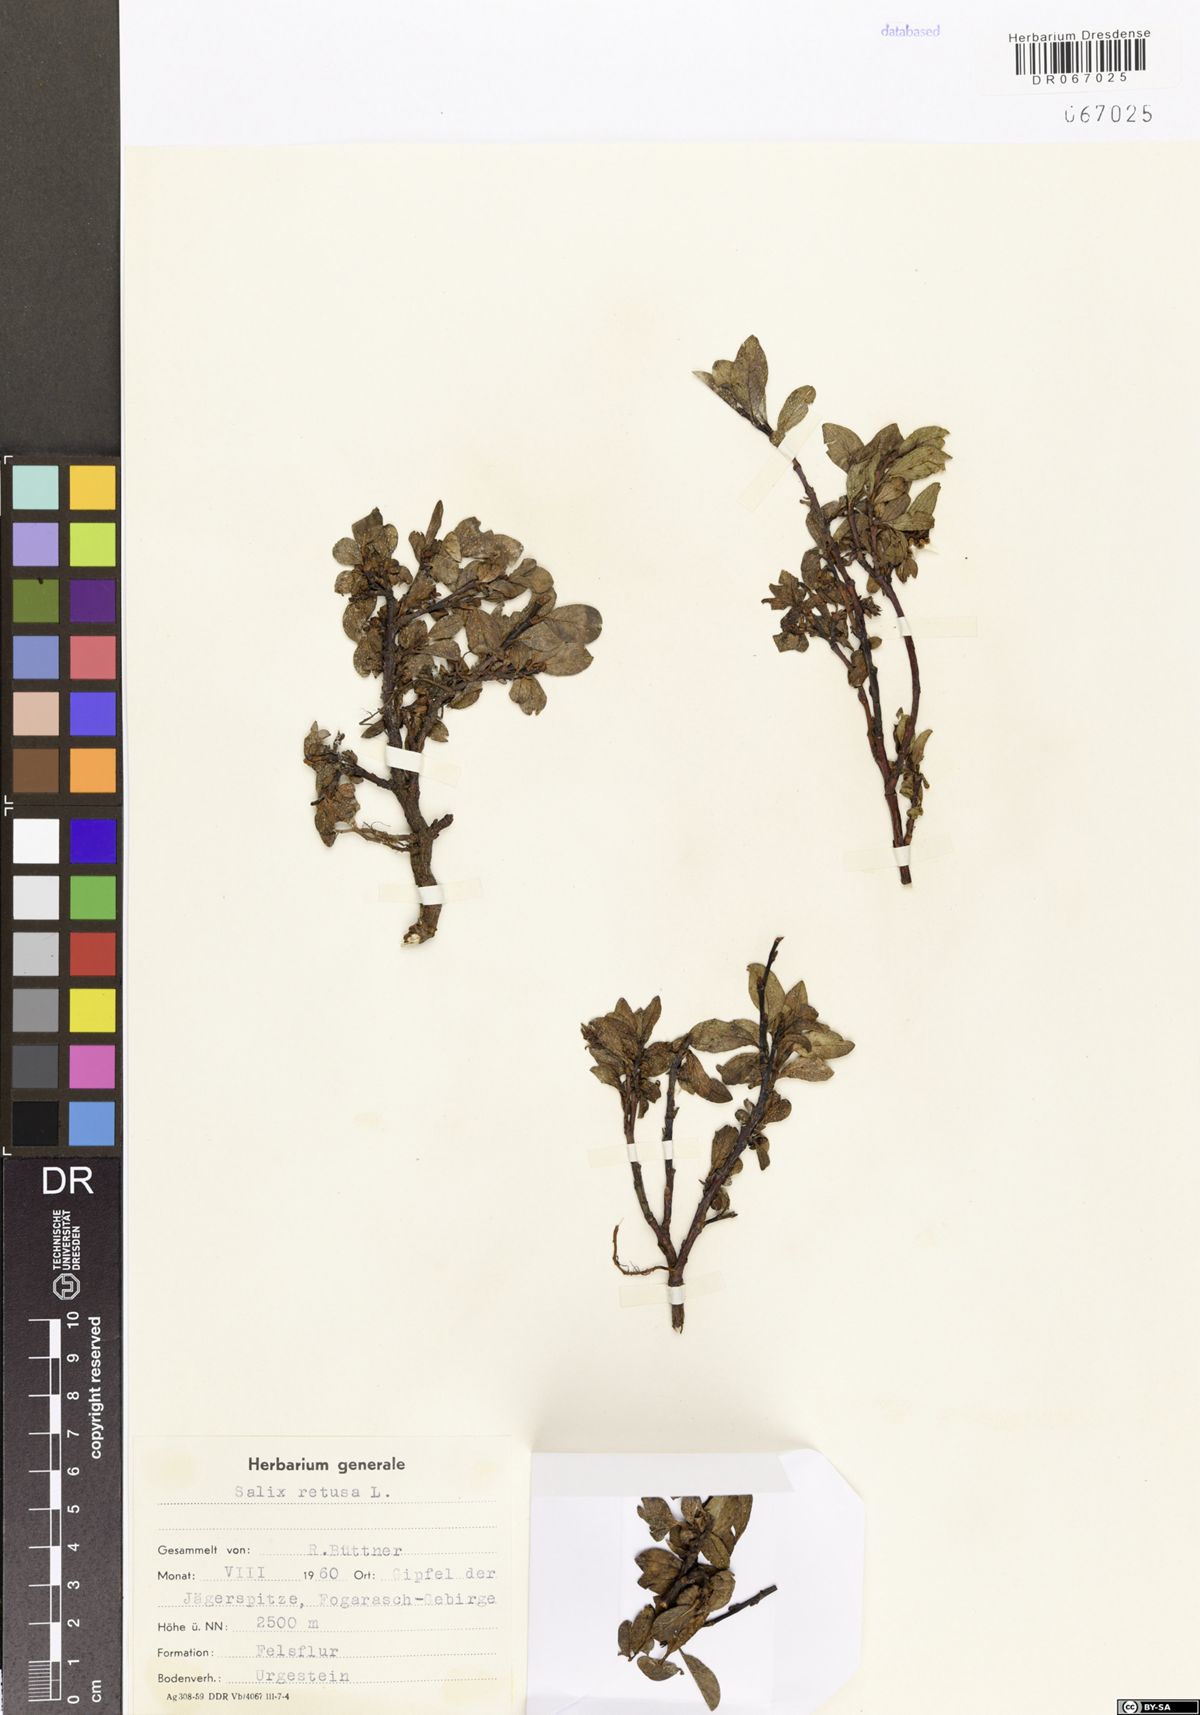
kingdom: Plantae
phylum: Tracheophyta
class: Magnoliopsida
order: Malpighiales
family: Salicaceae
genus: Salix
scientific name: Salix retusa
